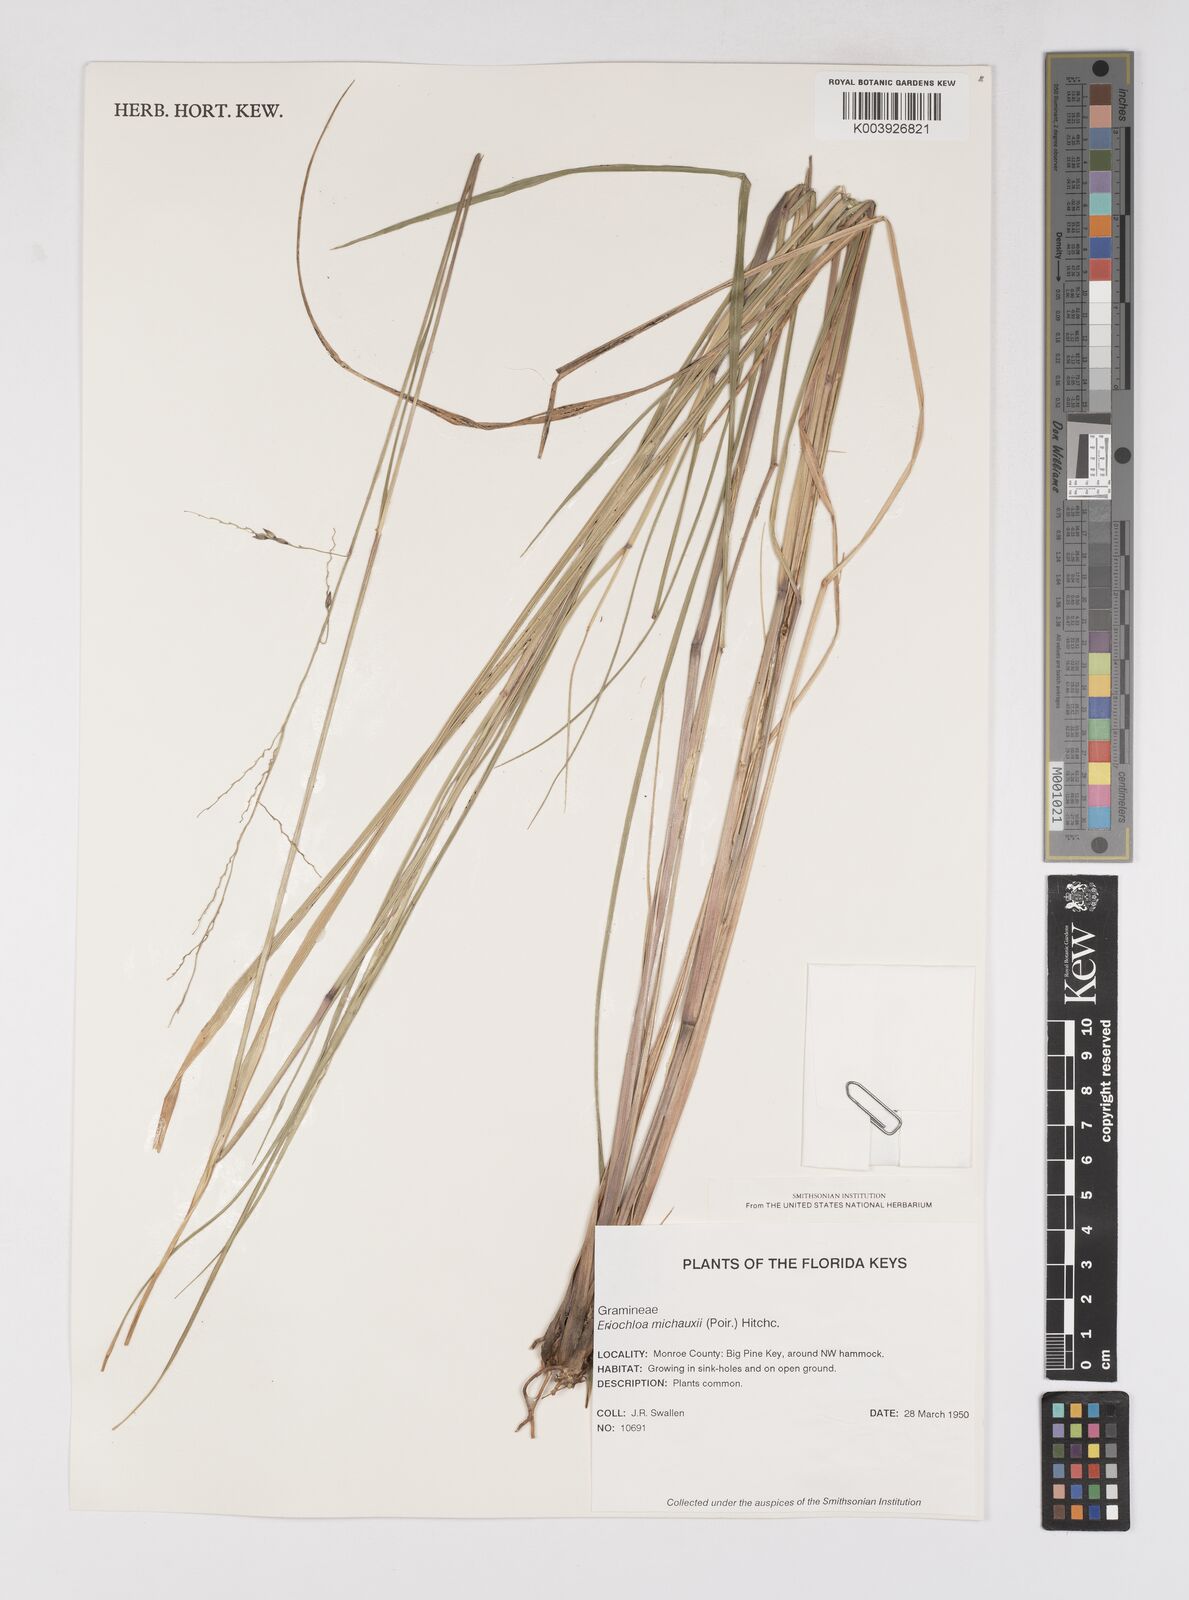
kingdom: Plantae
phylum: Tracheophyta
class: Liliopsida
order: Poales
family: Poaceae
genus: Eriochloa
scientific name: Eriochloa michauxii
